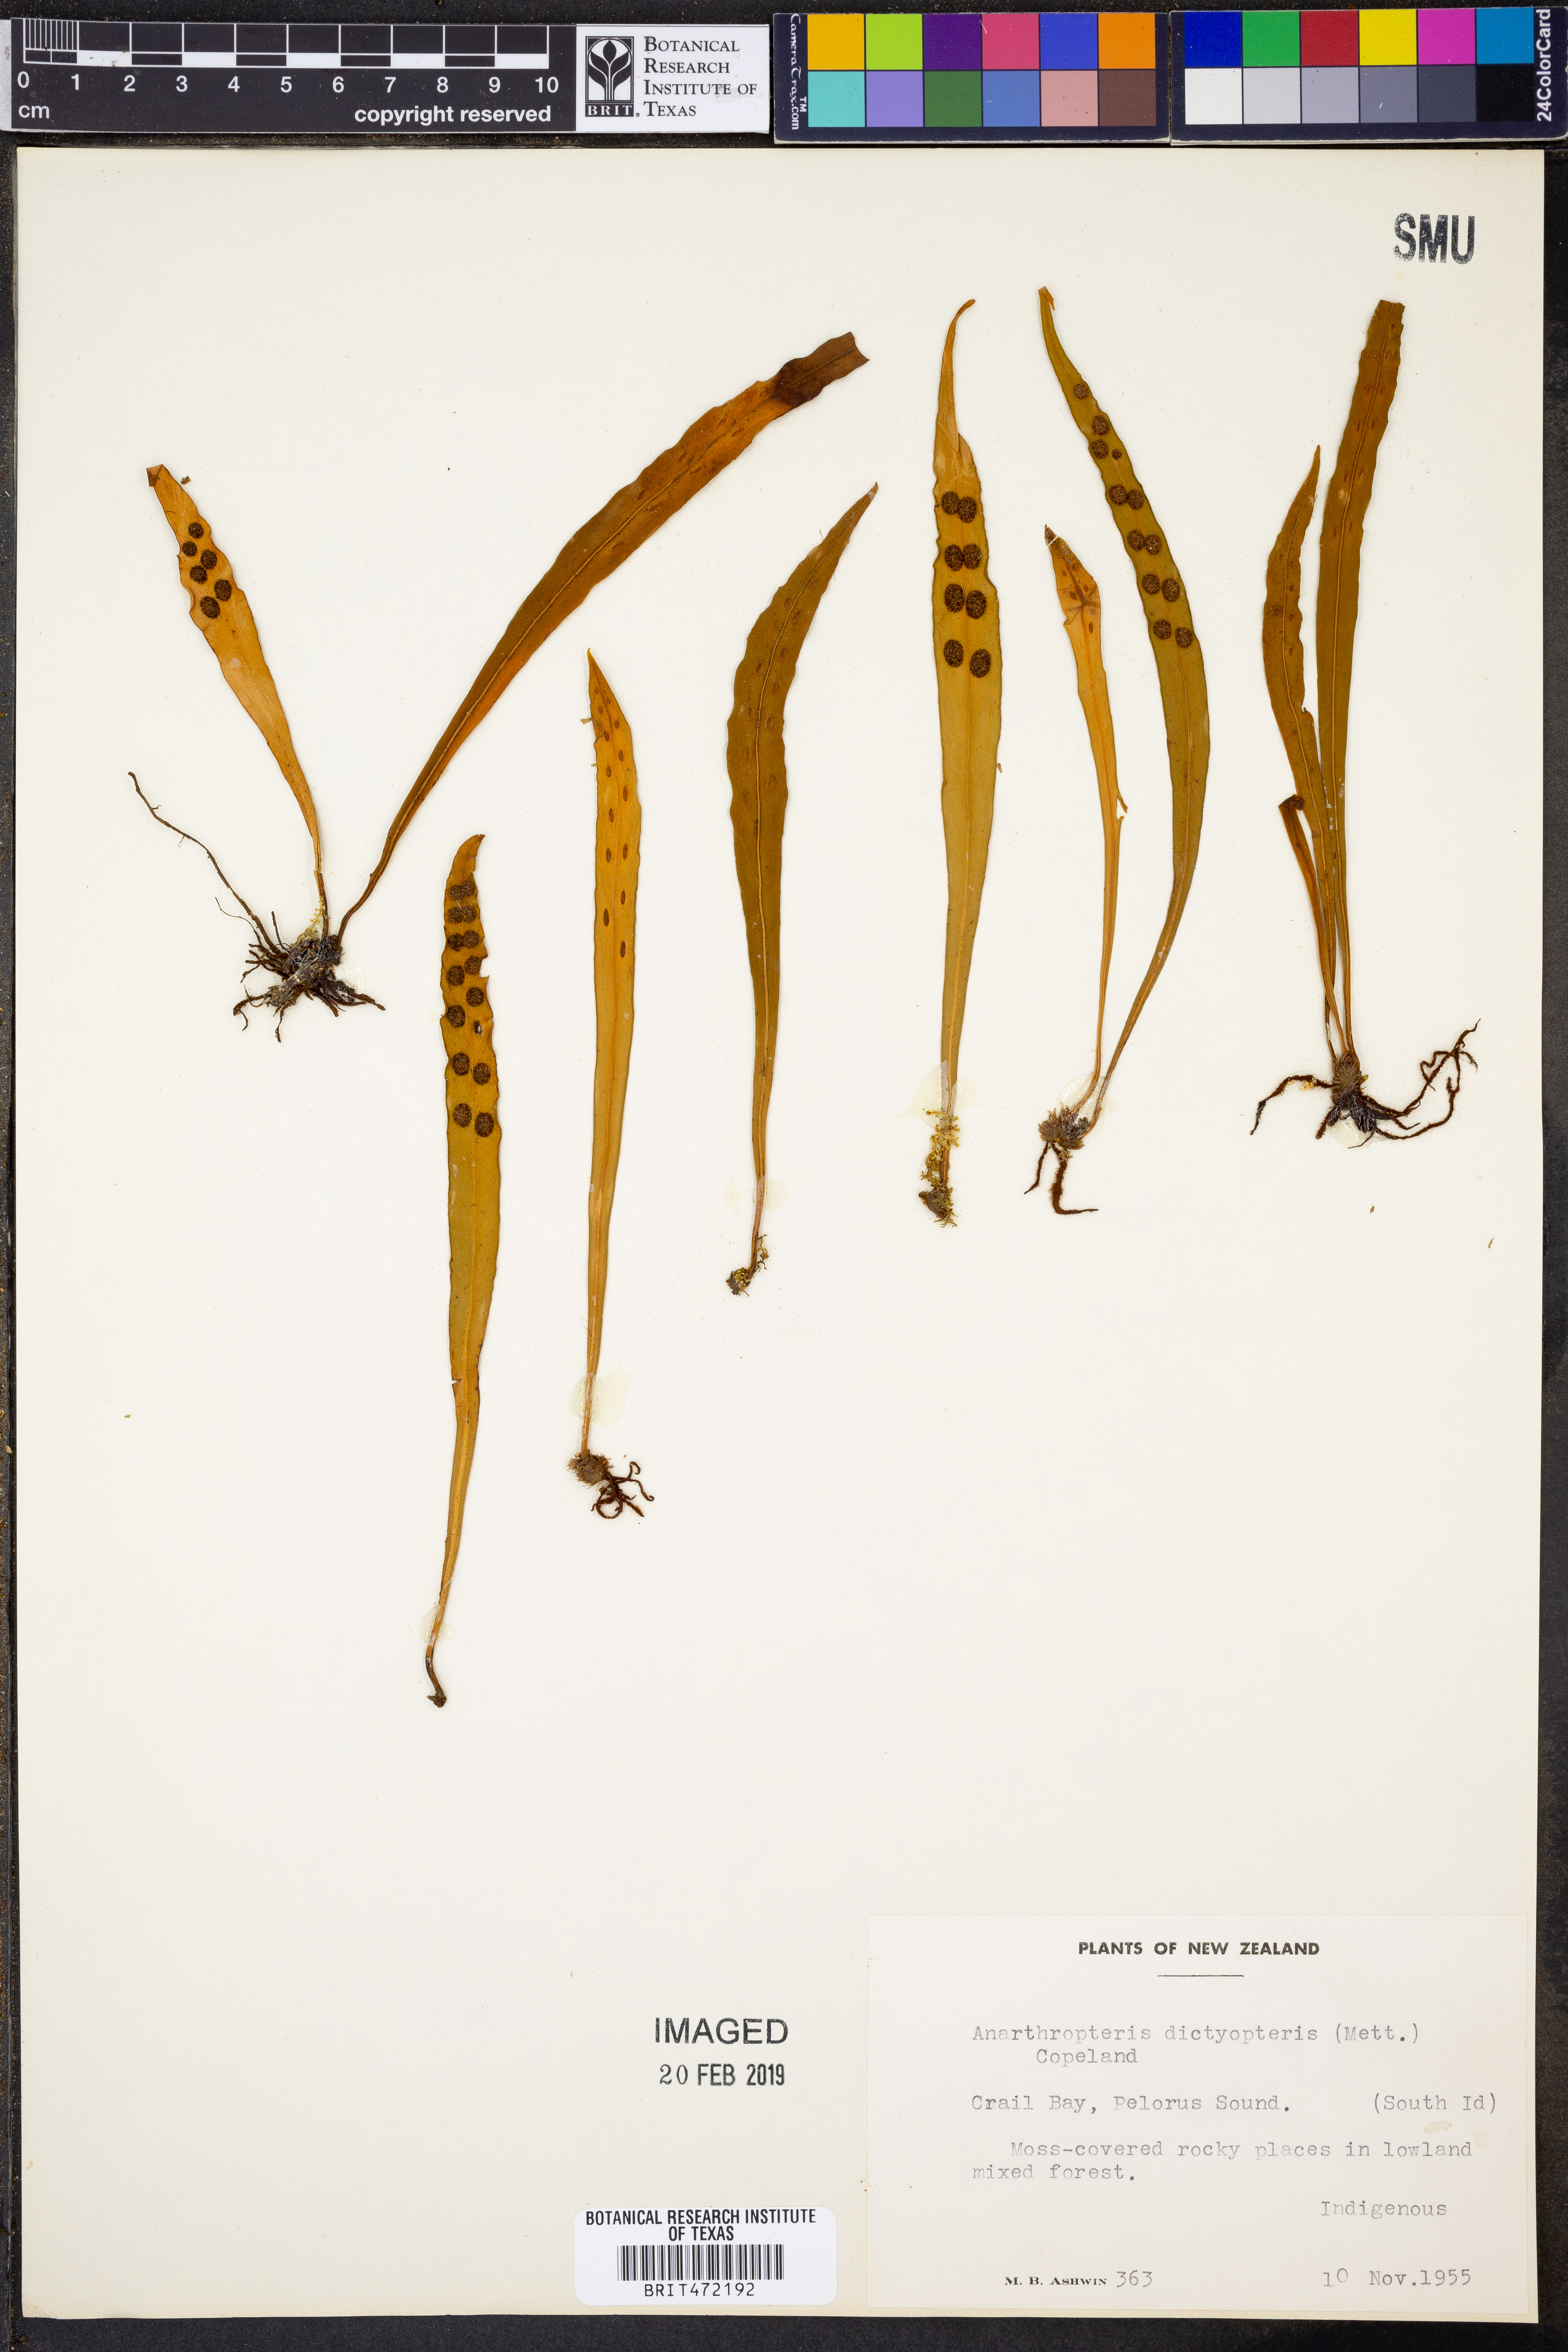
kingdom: Plantae
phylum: Tracheophyta
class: Polypodiopsida
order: Polypodiales
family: Polypodiaceae
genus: Loxogramme
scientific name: Loxogramme dictyopteris
